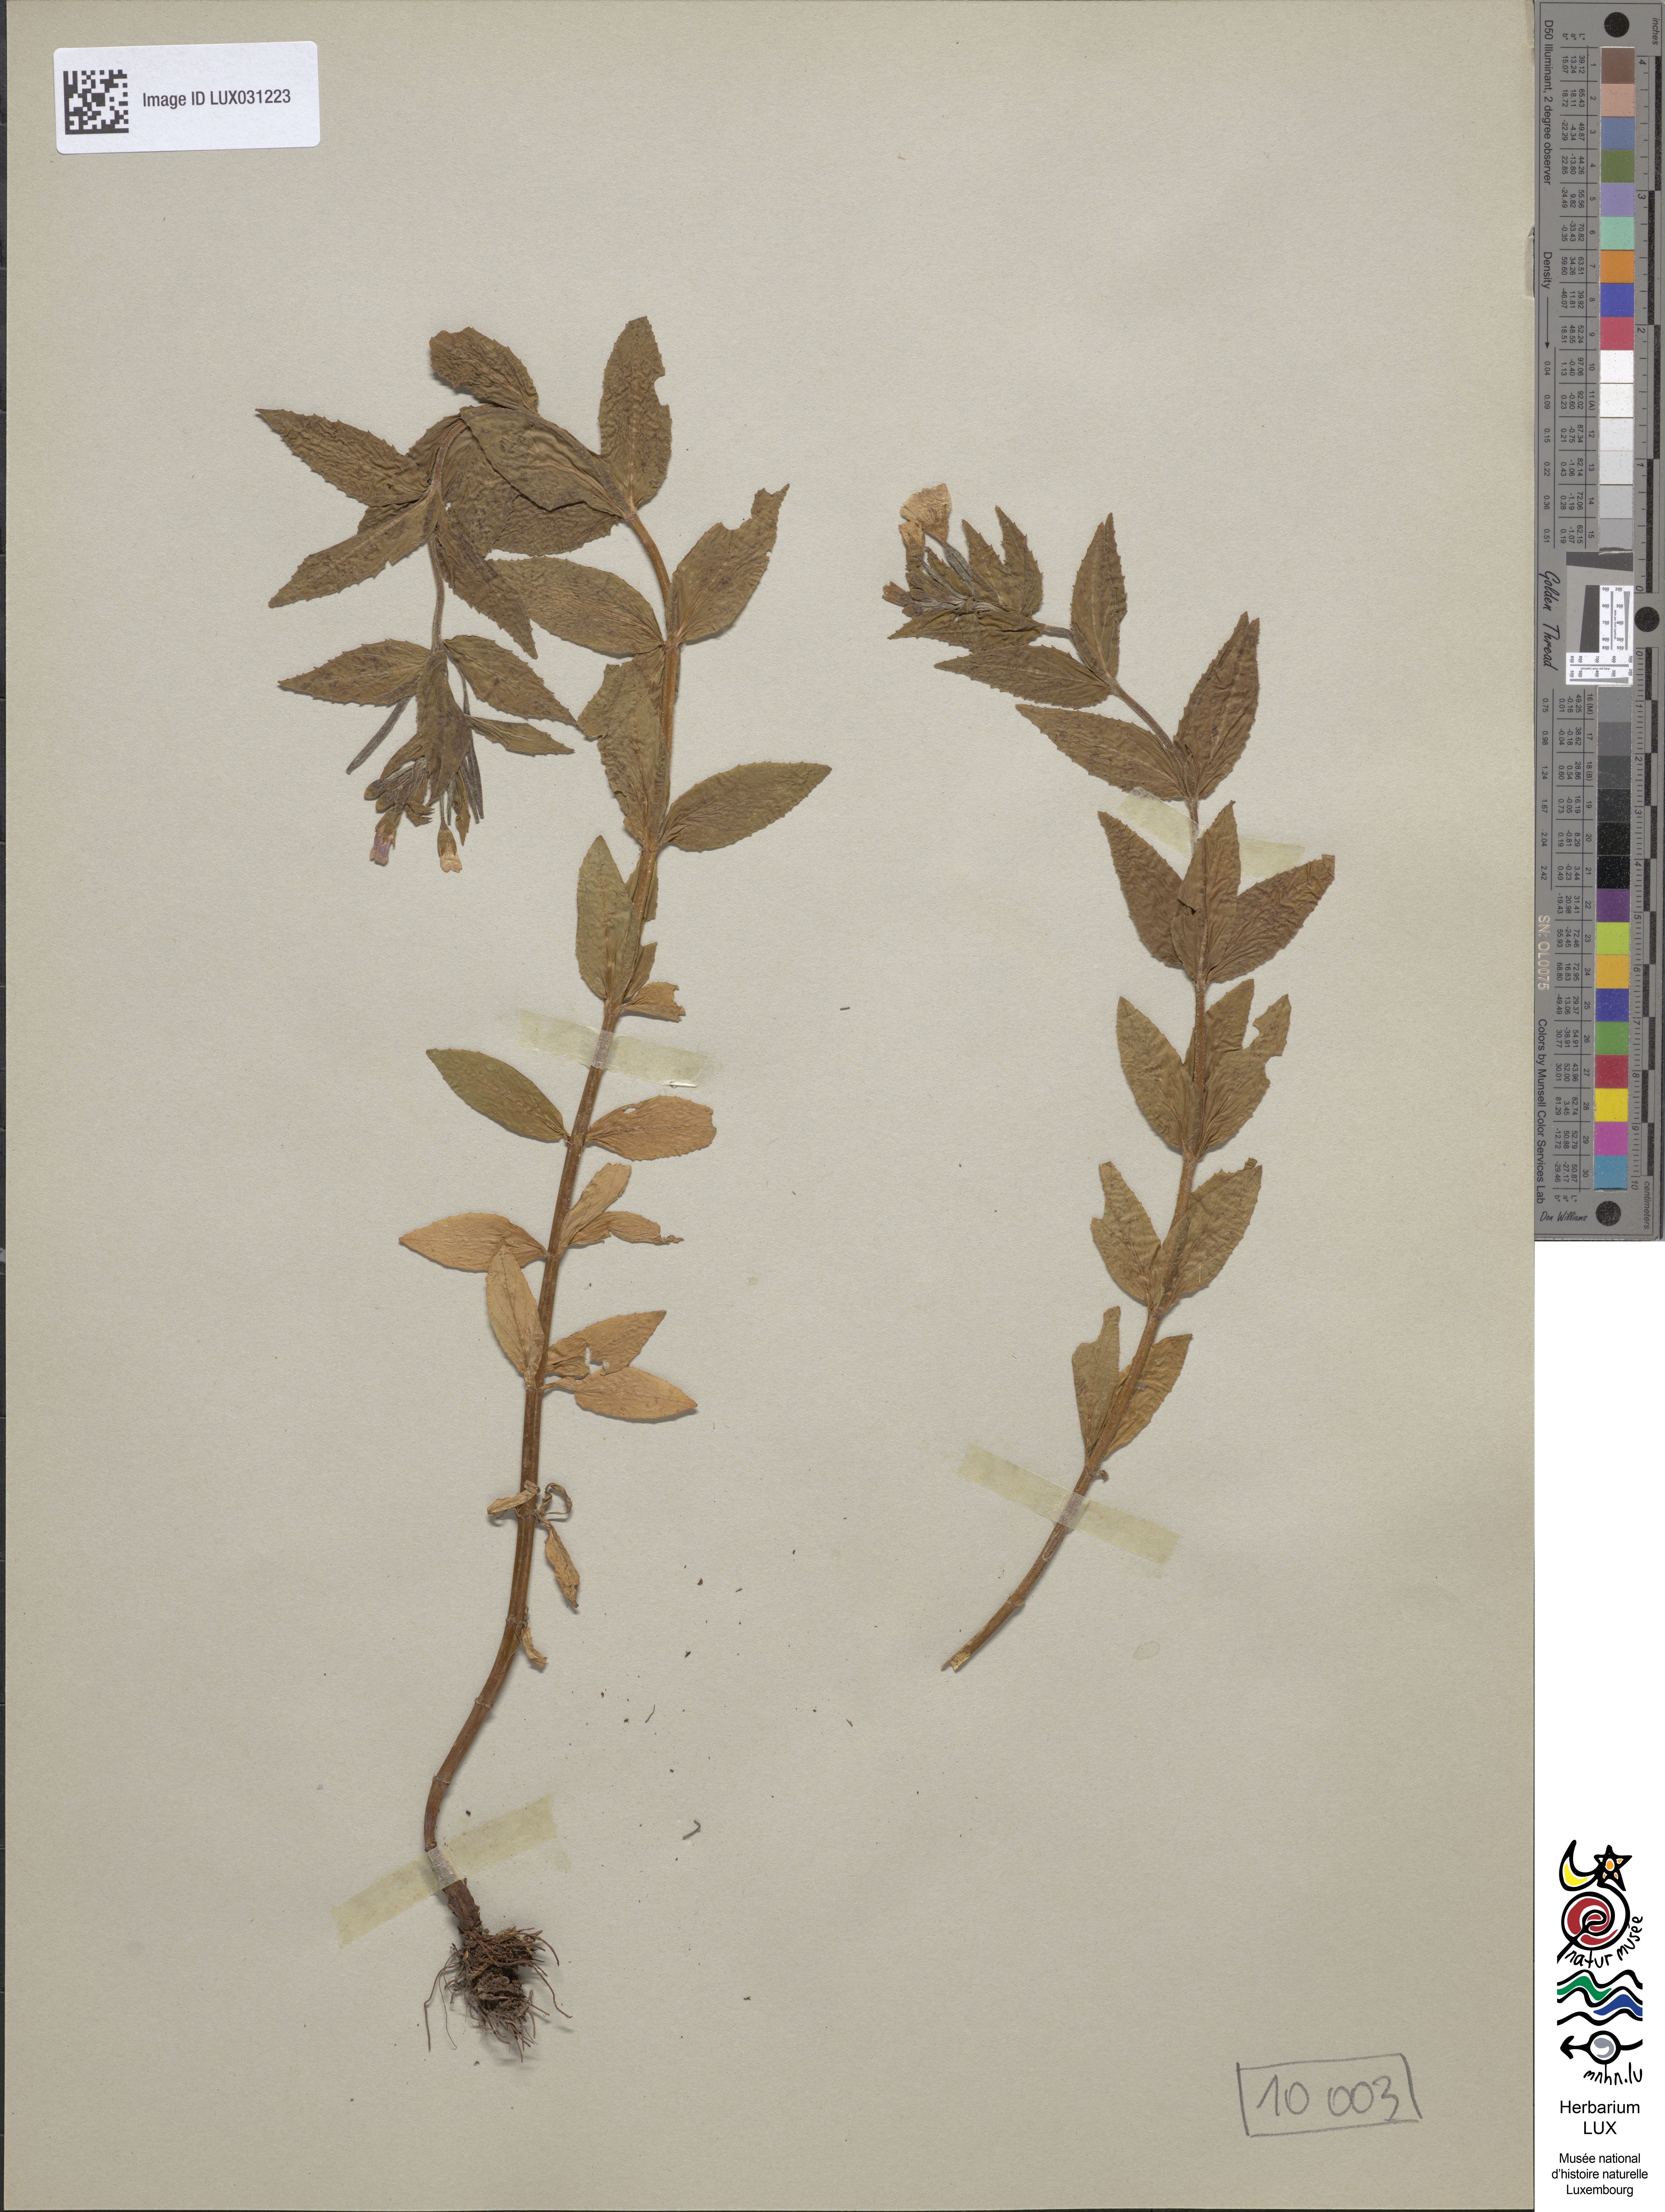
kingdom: Plantae
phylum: Tracheophyta
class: Magnoliopsida
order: Myrtales
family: Onagraceae
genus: Epilobium
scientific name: Epilobium alpestre
